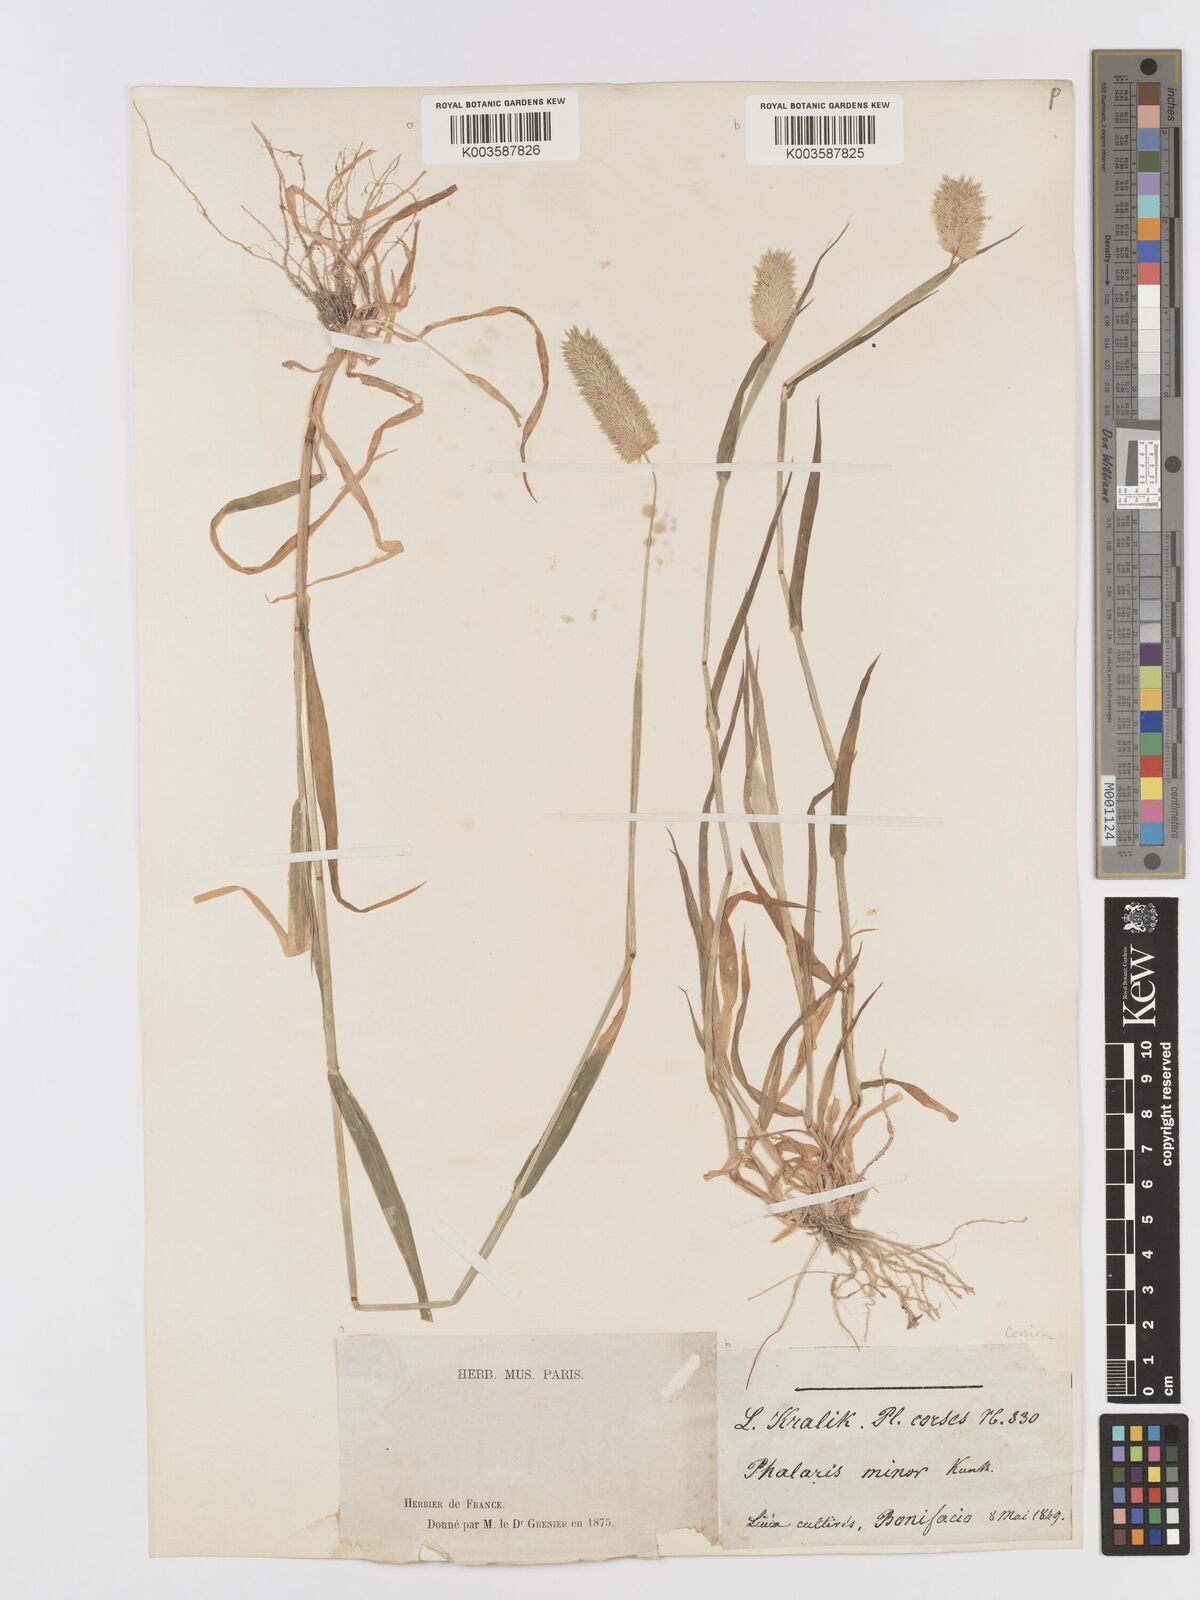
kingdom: Plantae
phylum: Tracheophyta
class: Liliopsida
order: Poales
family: Poaceae
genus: Phalaris
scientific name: Phalaris minor
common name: Littleseed canarygrass
